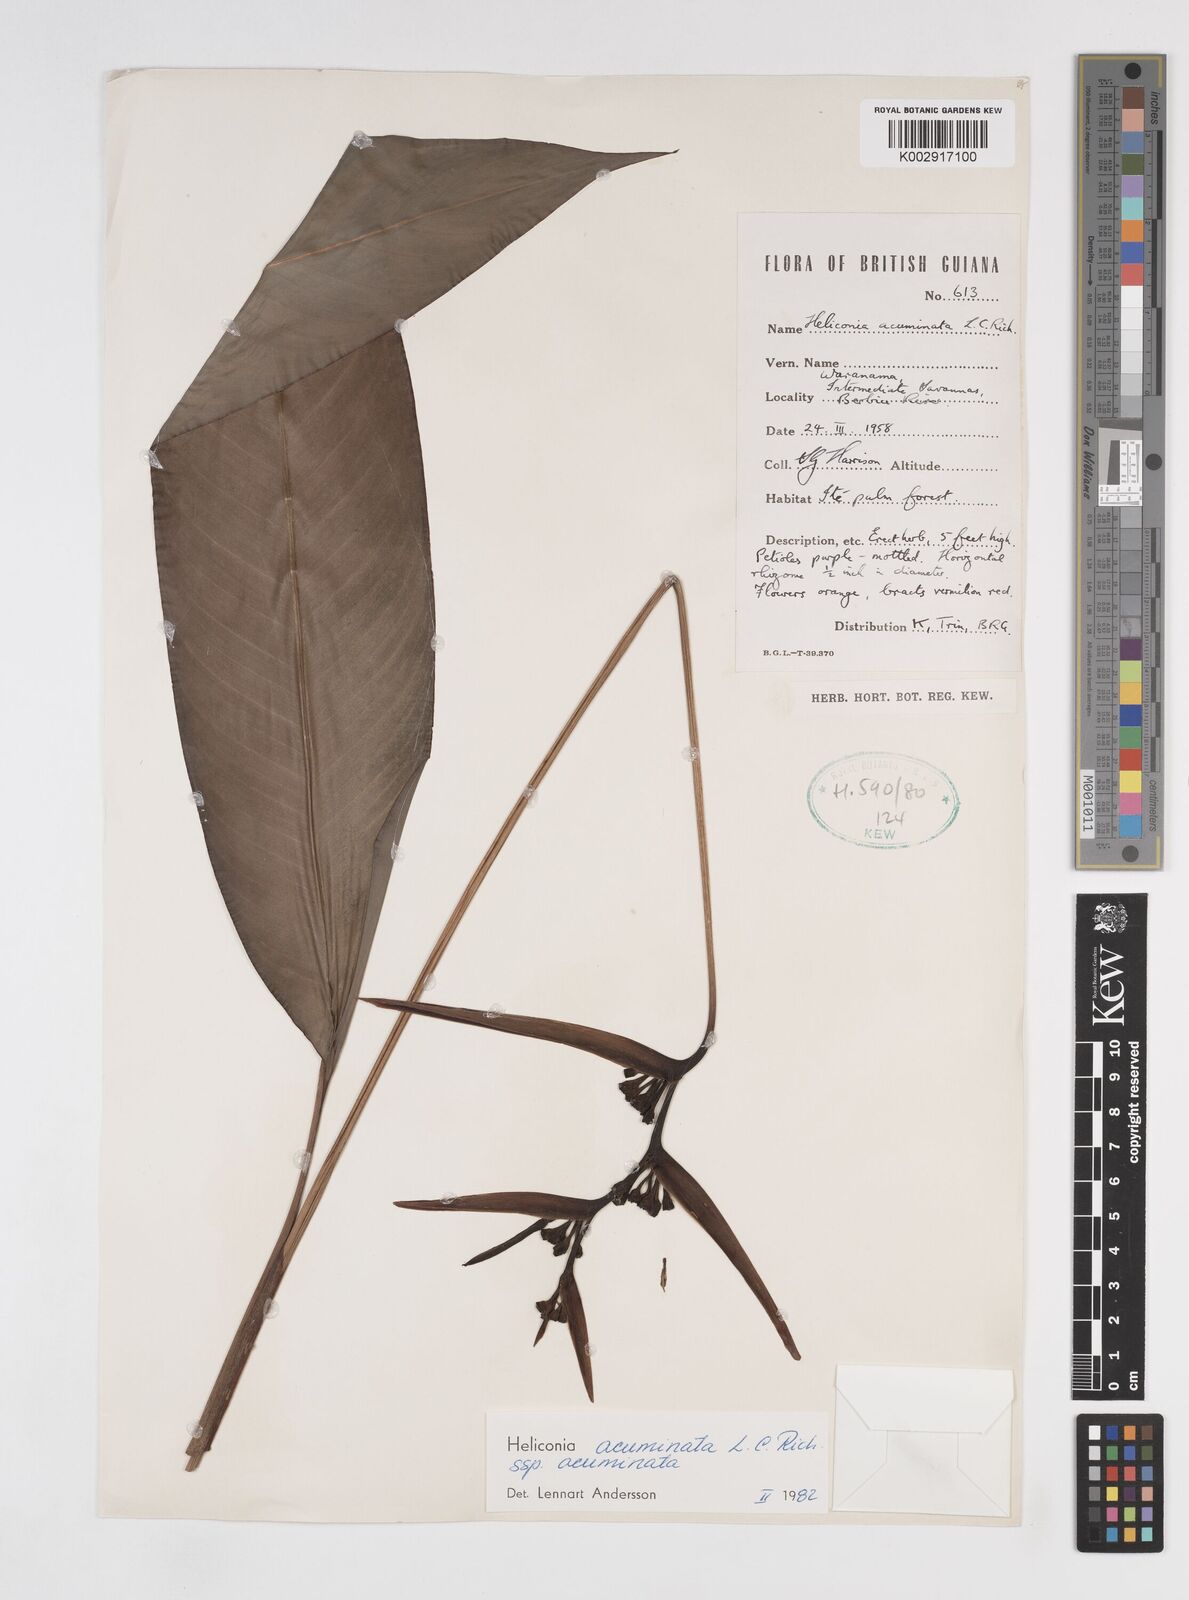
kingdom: Plantae
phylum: Tracheophyta
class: Liliopsida
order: Zingiberales
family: Heliconiaceae
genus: Heliconia
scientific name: Heliconia acuminata
